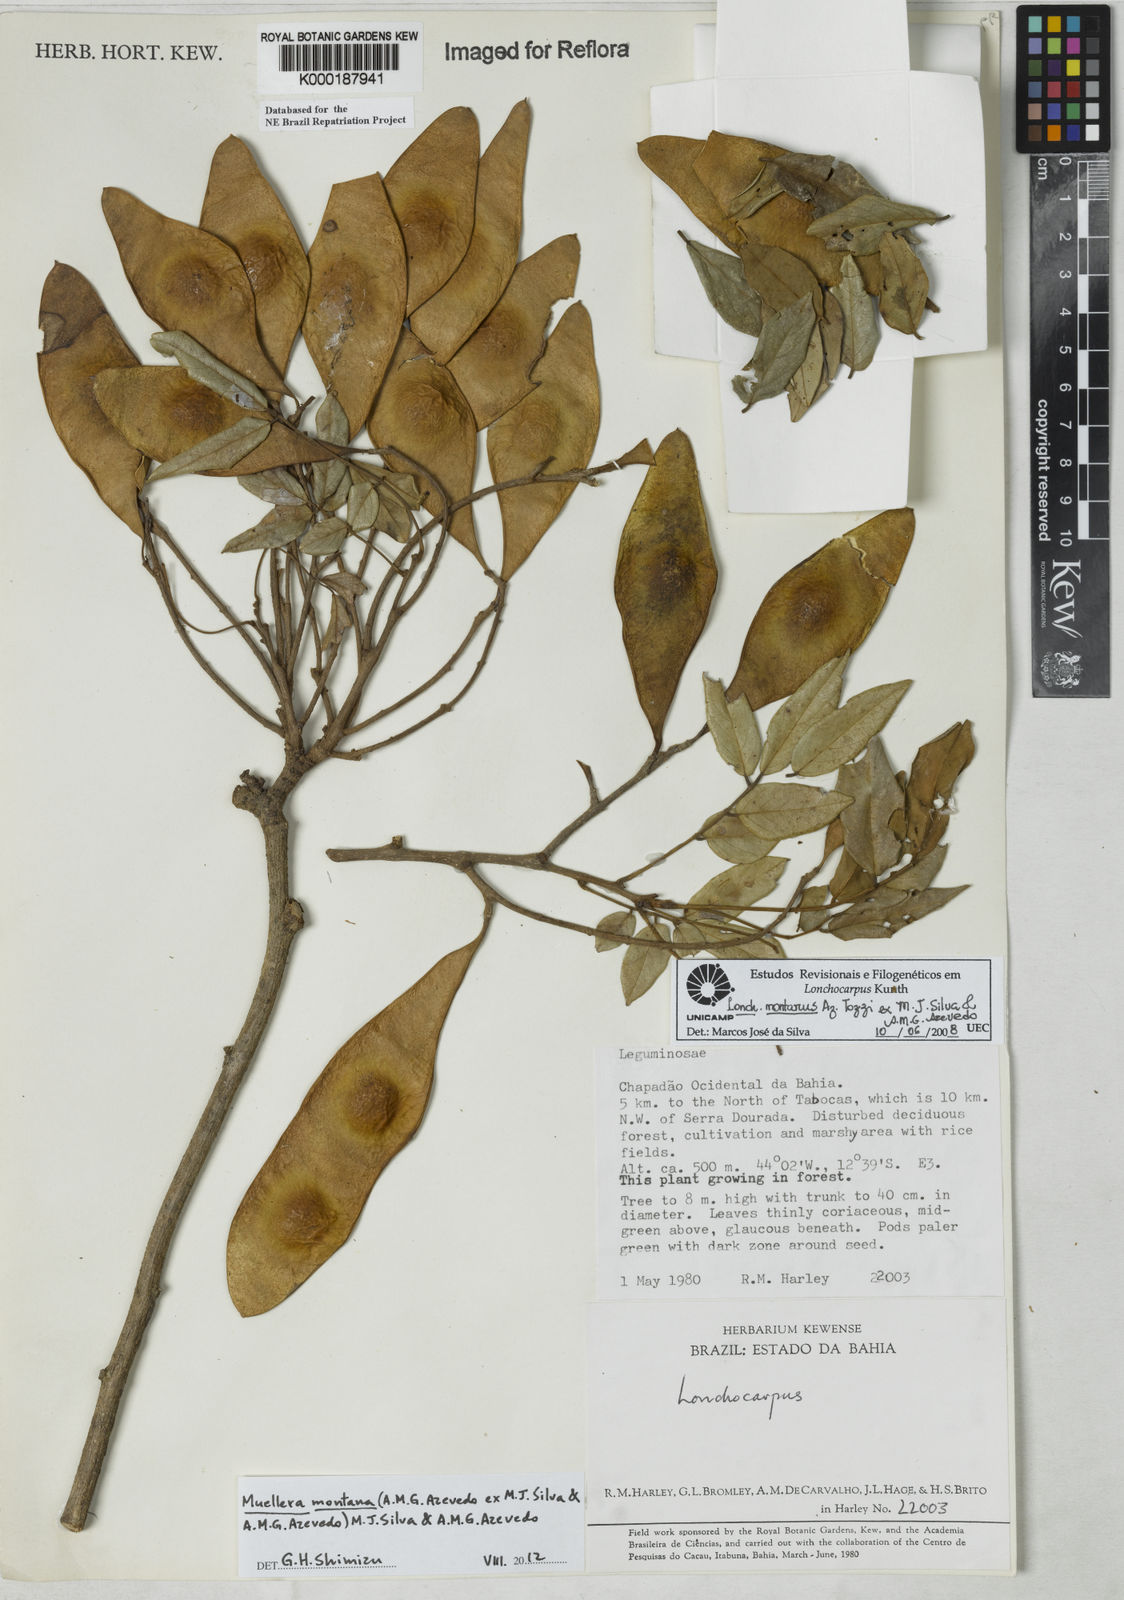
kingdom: Plantae
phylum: Tracheophyta
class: Magnoliopsida
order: Fabales
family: Fabaceae
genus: Lonchocarpus
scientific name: Lonchocarpus
